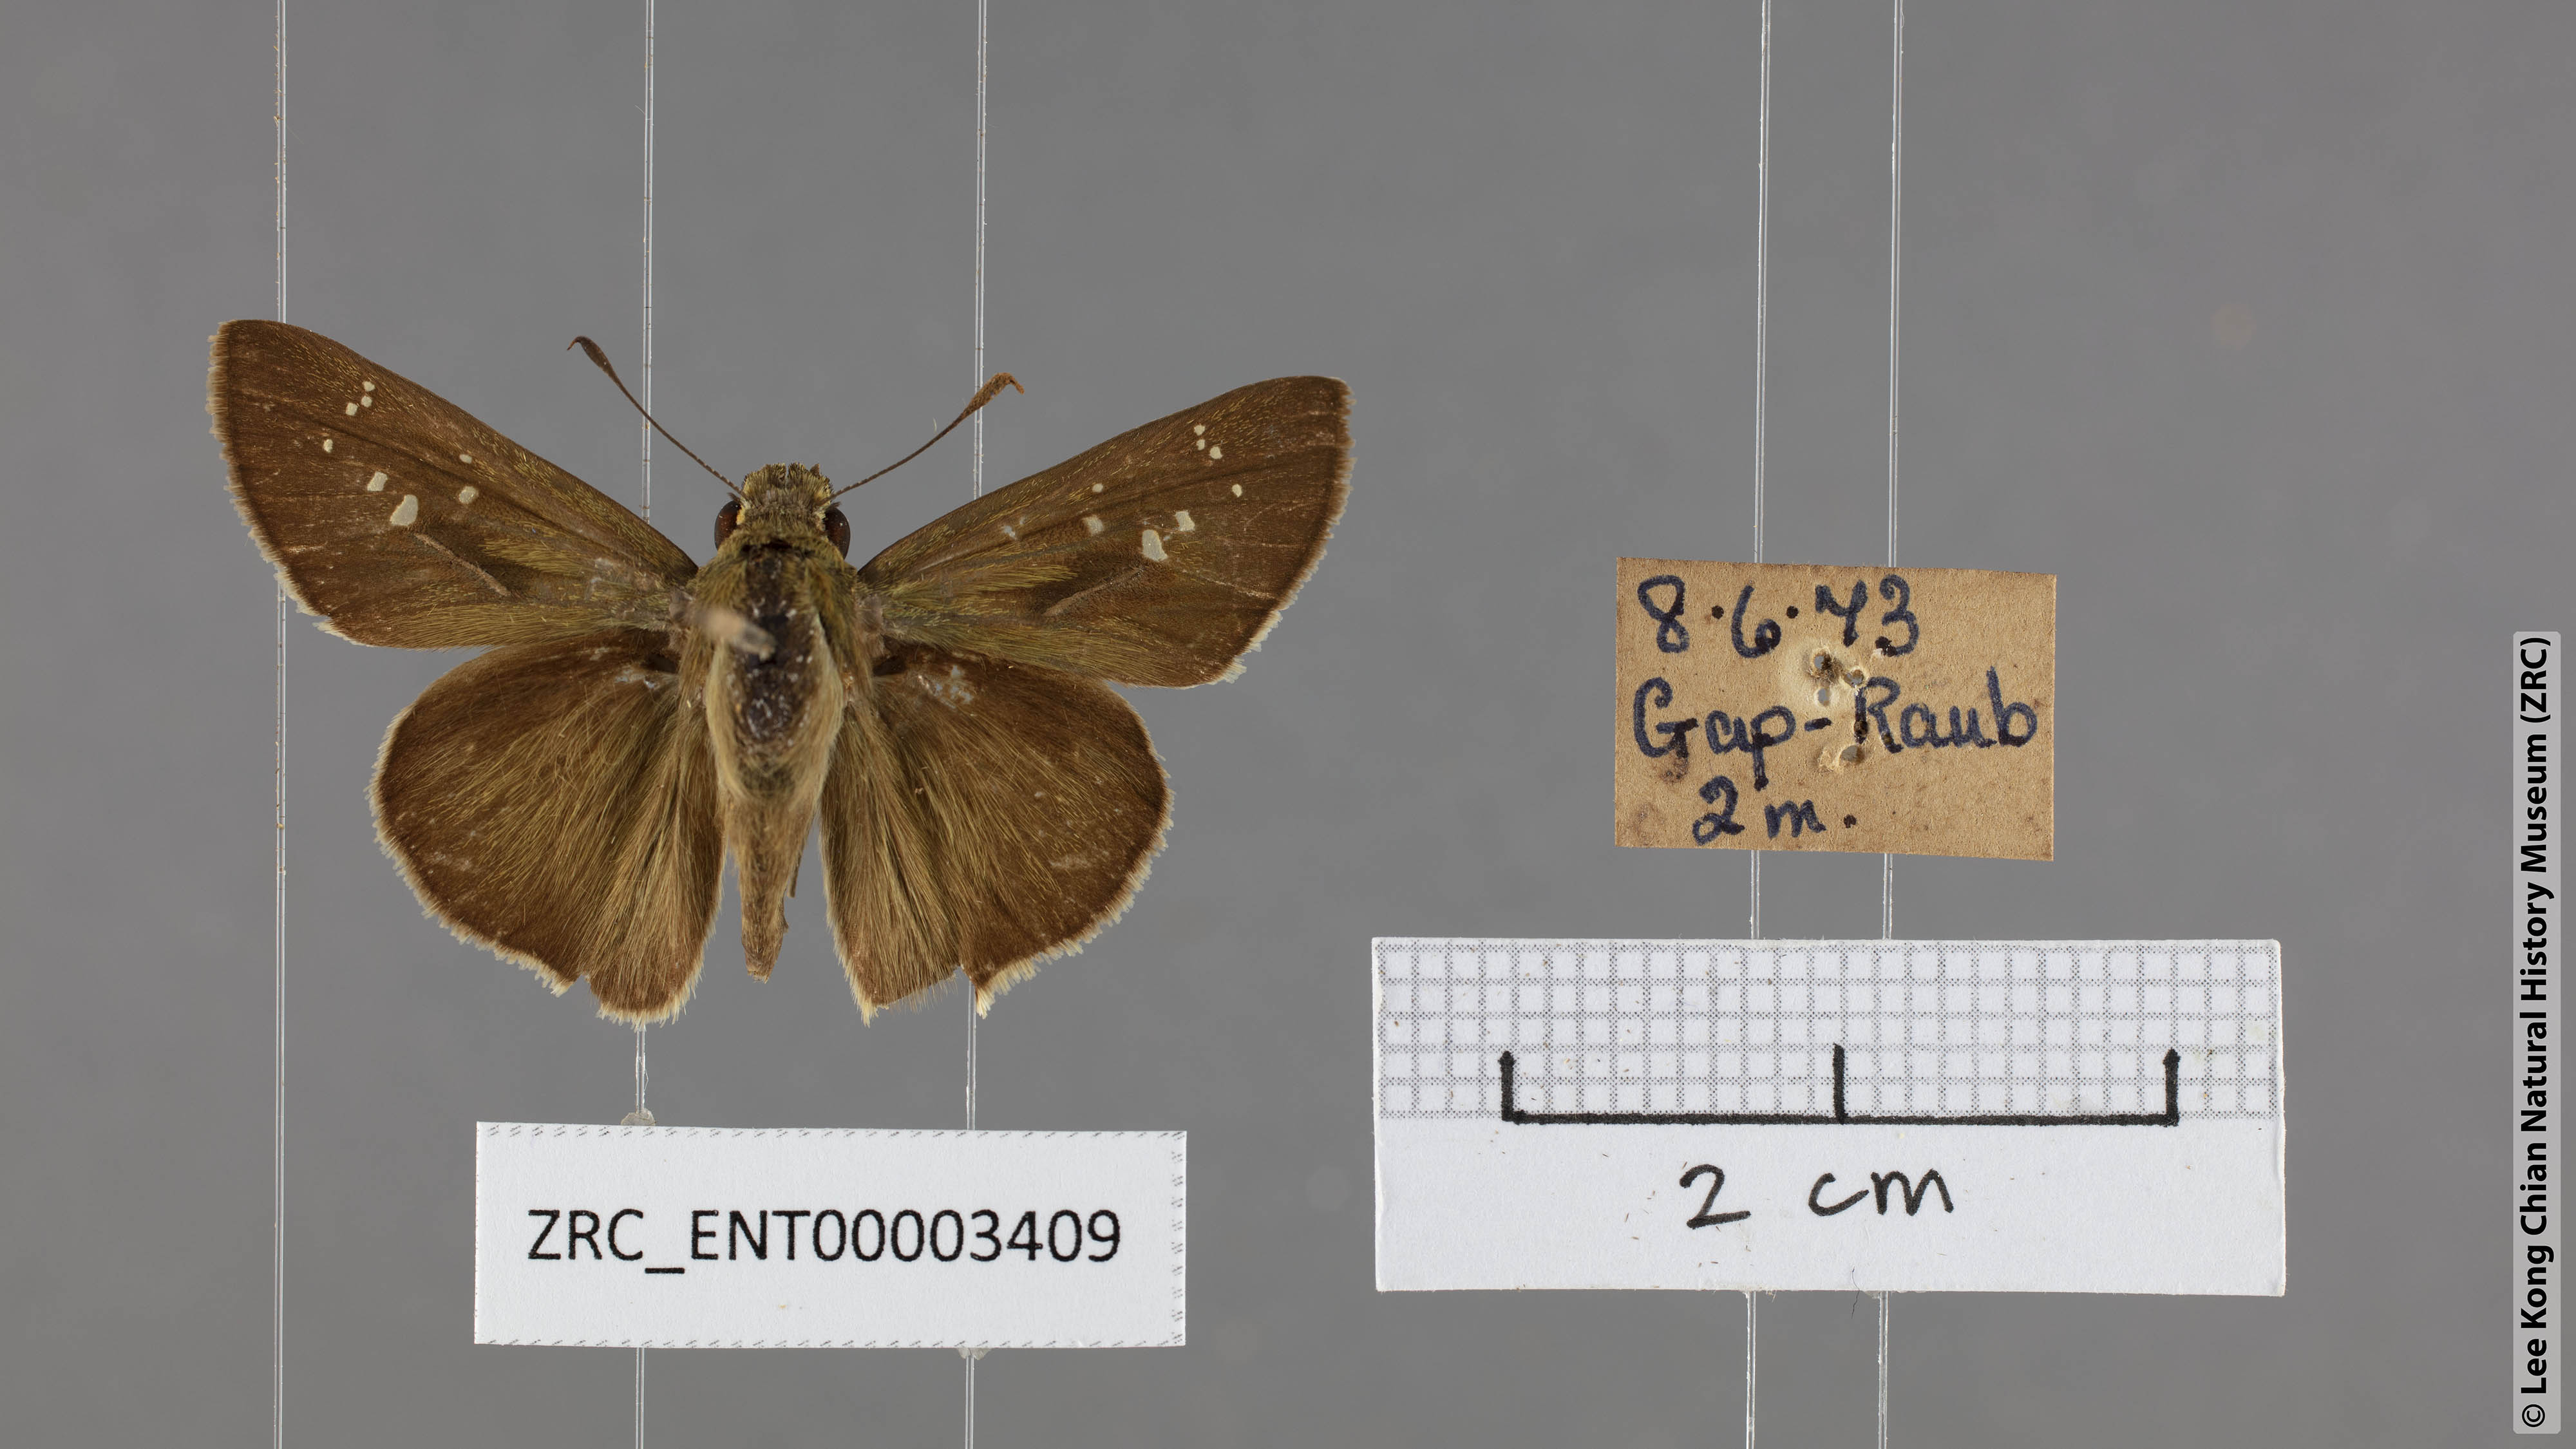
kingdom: Animalia
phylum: Arthropoda
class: Insecta
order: Lepidoptera
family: Hesperiidae
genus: Pelopidas
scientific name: Pelopidas mathias
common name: Black-branded swift
